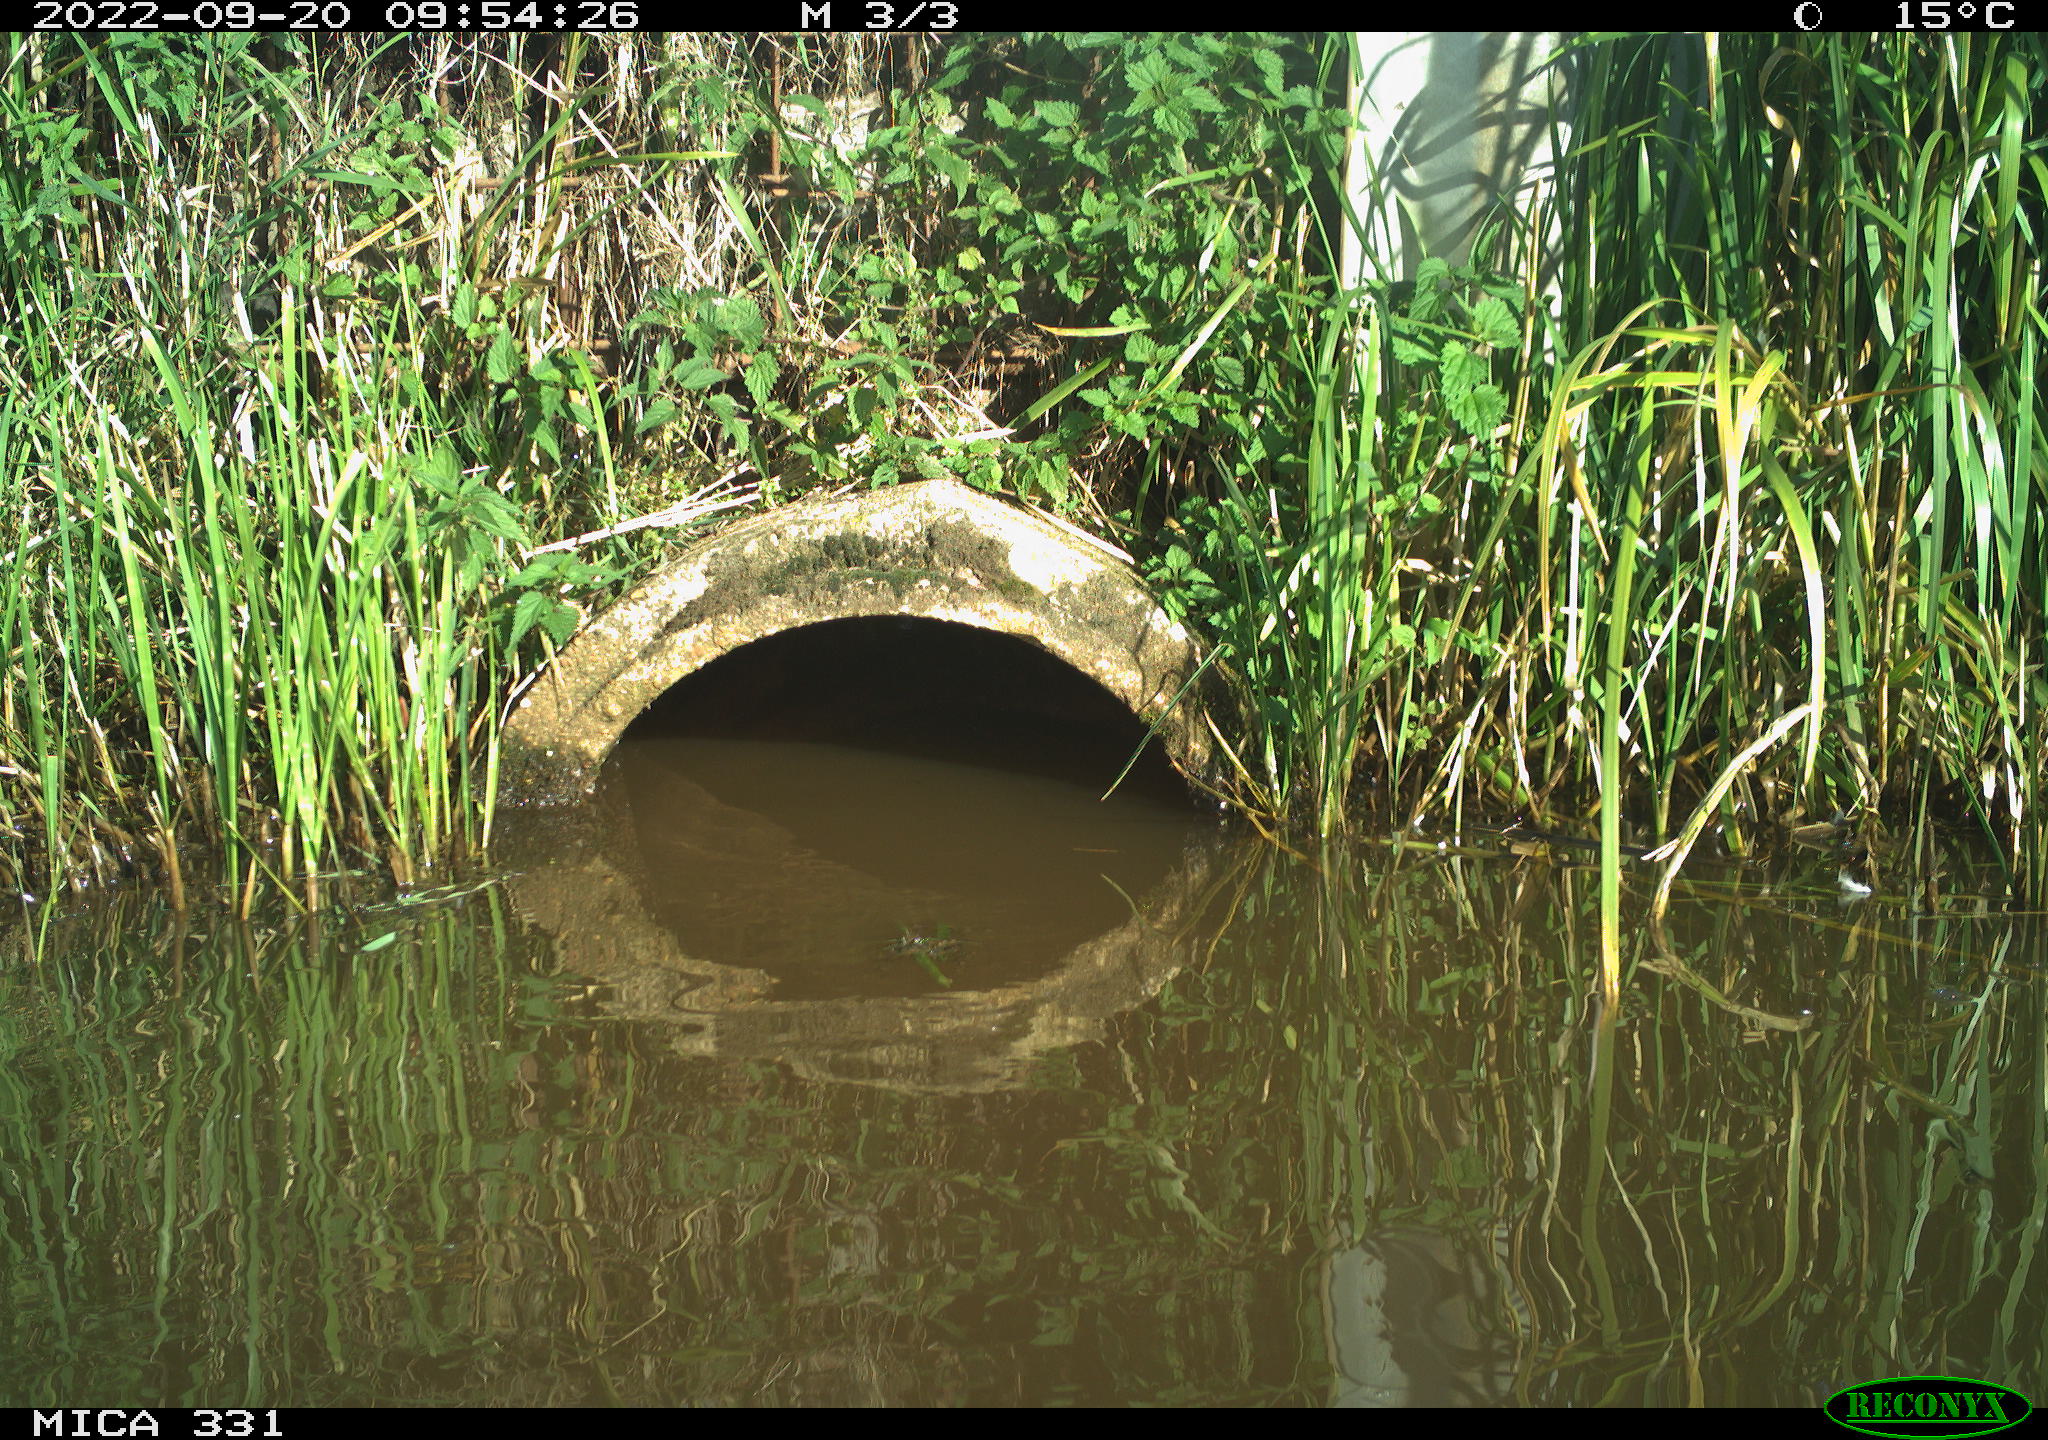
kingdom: Animalia
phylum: Chordata
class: Aves
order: Gruiformes
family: Rallidae
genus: Gallinula
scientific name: Gallinula chloropus
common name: Common moorhen
